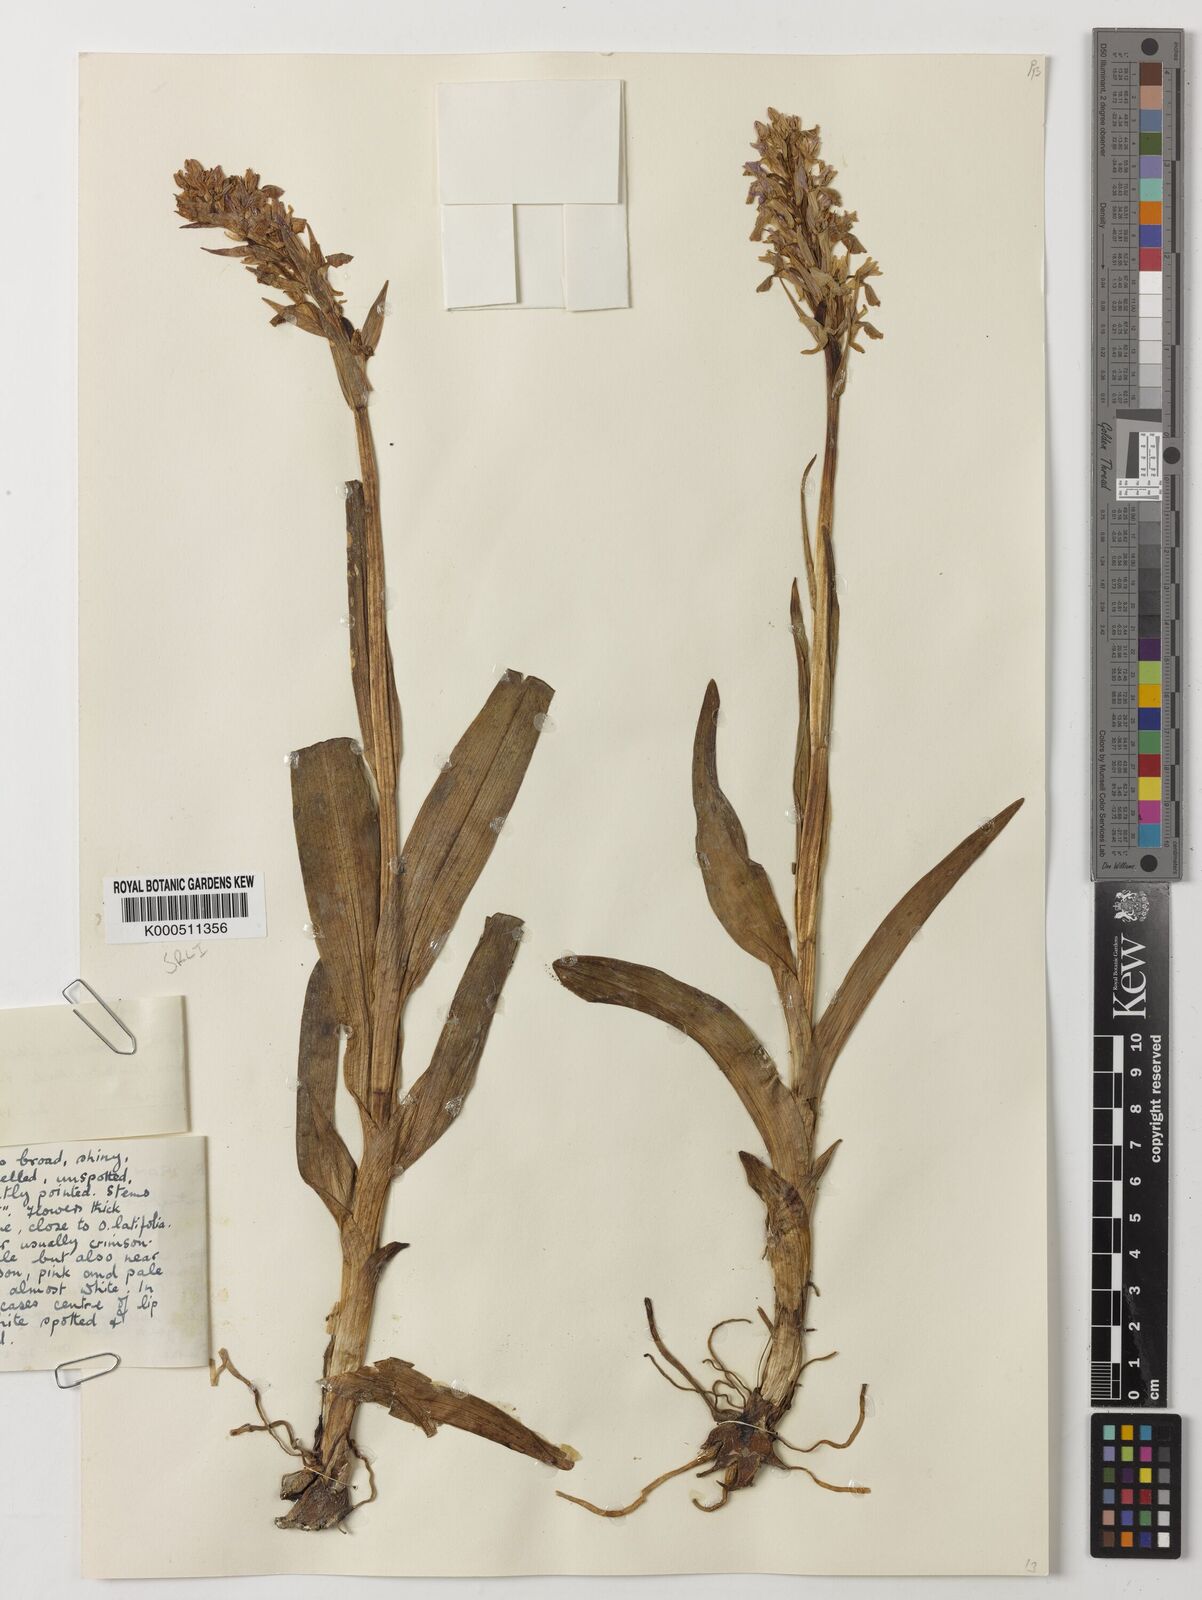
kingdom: Plantae
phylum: Tracheophyta
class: Liliopsida
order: Asparagales
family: Orchidaceae
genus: Dactylorhiza
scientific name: Dactylorhiza
